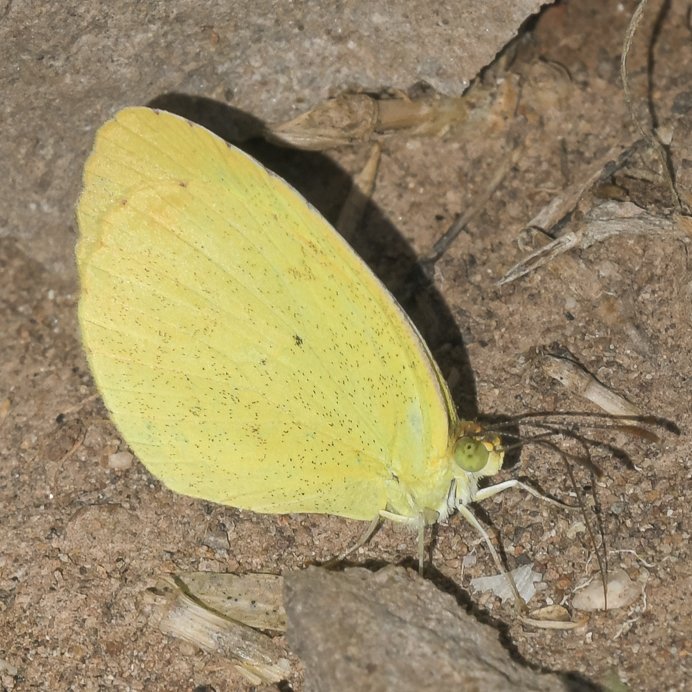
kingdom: Animalia
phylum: Arthropoda
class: Insecta
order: Lepidoptera
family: Pieridae
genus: Pyrisitia
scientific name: Pyrisitia nise
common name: Mimosa Yellow
